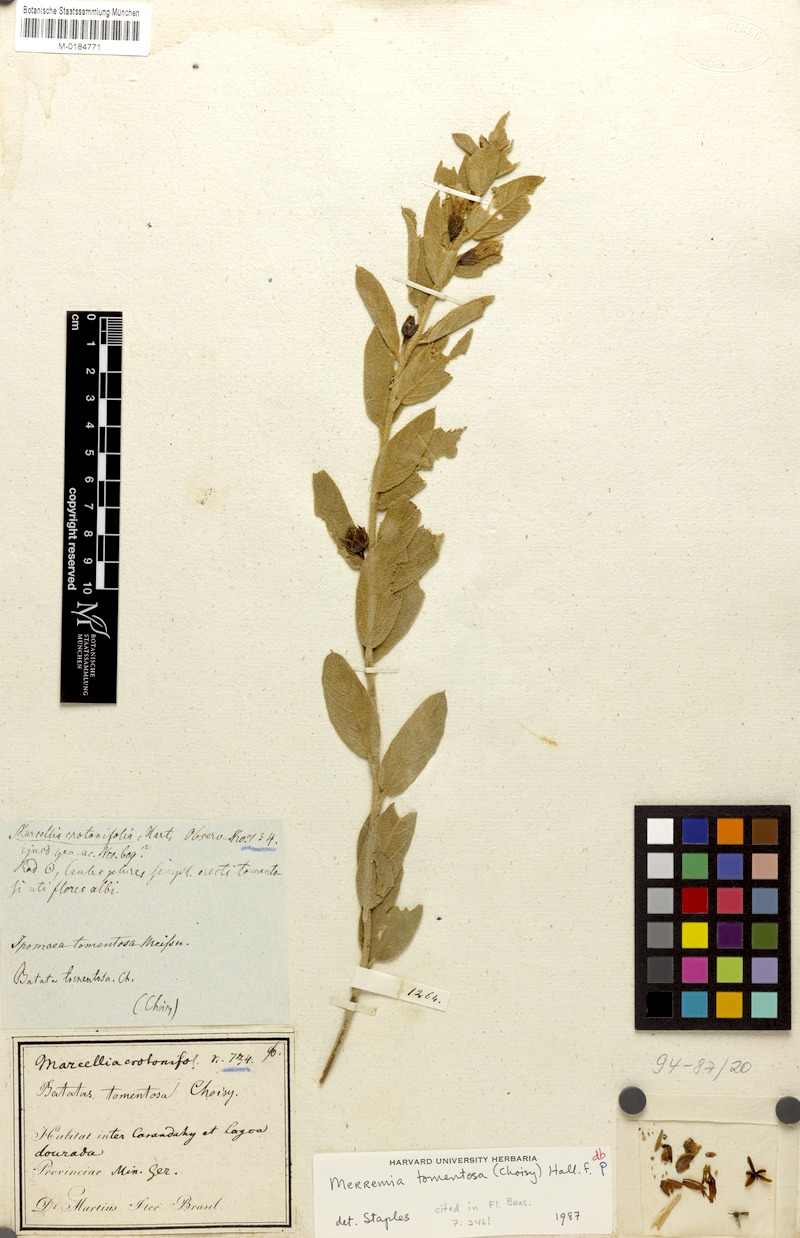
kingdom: Plantae
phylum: Tracheophyta
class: Magnoliopsida
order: Solanales
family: Convolvulaceae
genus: Distimake
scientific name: Distimake tomentosus
